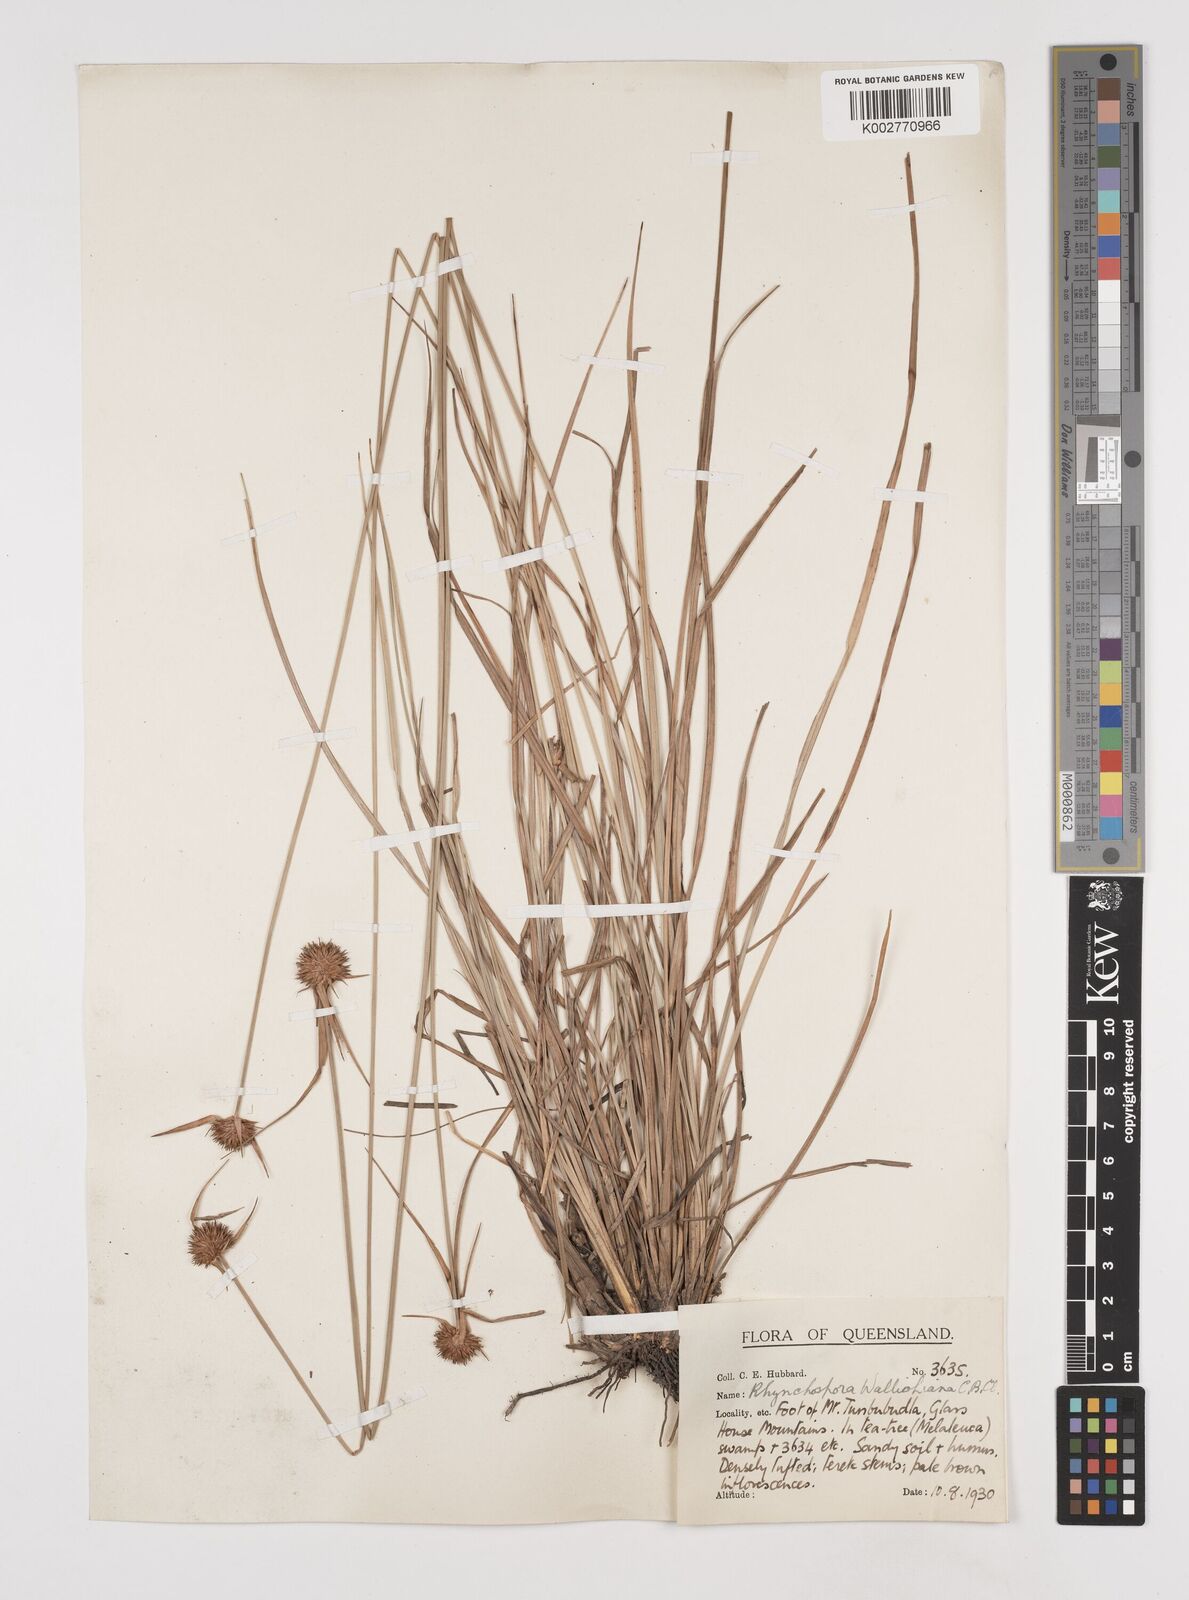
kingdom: Plantae
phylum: Tracheophyta
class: Liliopsida
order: Poales
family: Cyperaceae
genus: Rhynchospora
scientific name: Rhynchospora rubra
